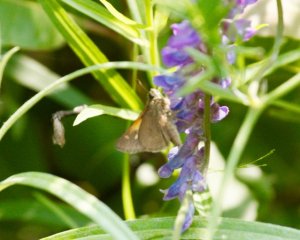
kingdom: Animalia
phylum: Arthropoda
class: Insecta
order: Lepidoptera
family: Hesperiidae
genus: Polites
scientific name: Polites themistocles
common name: Tawny-edged Skipper
